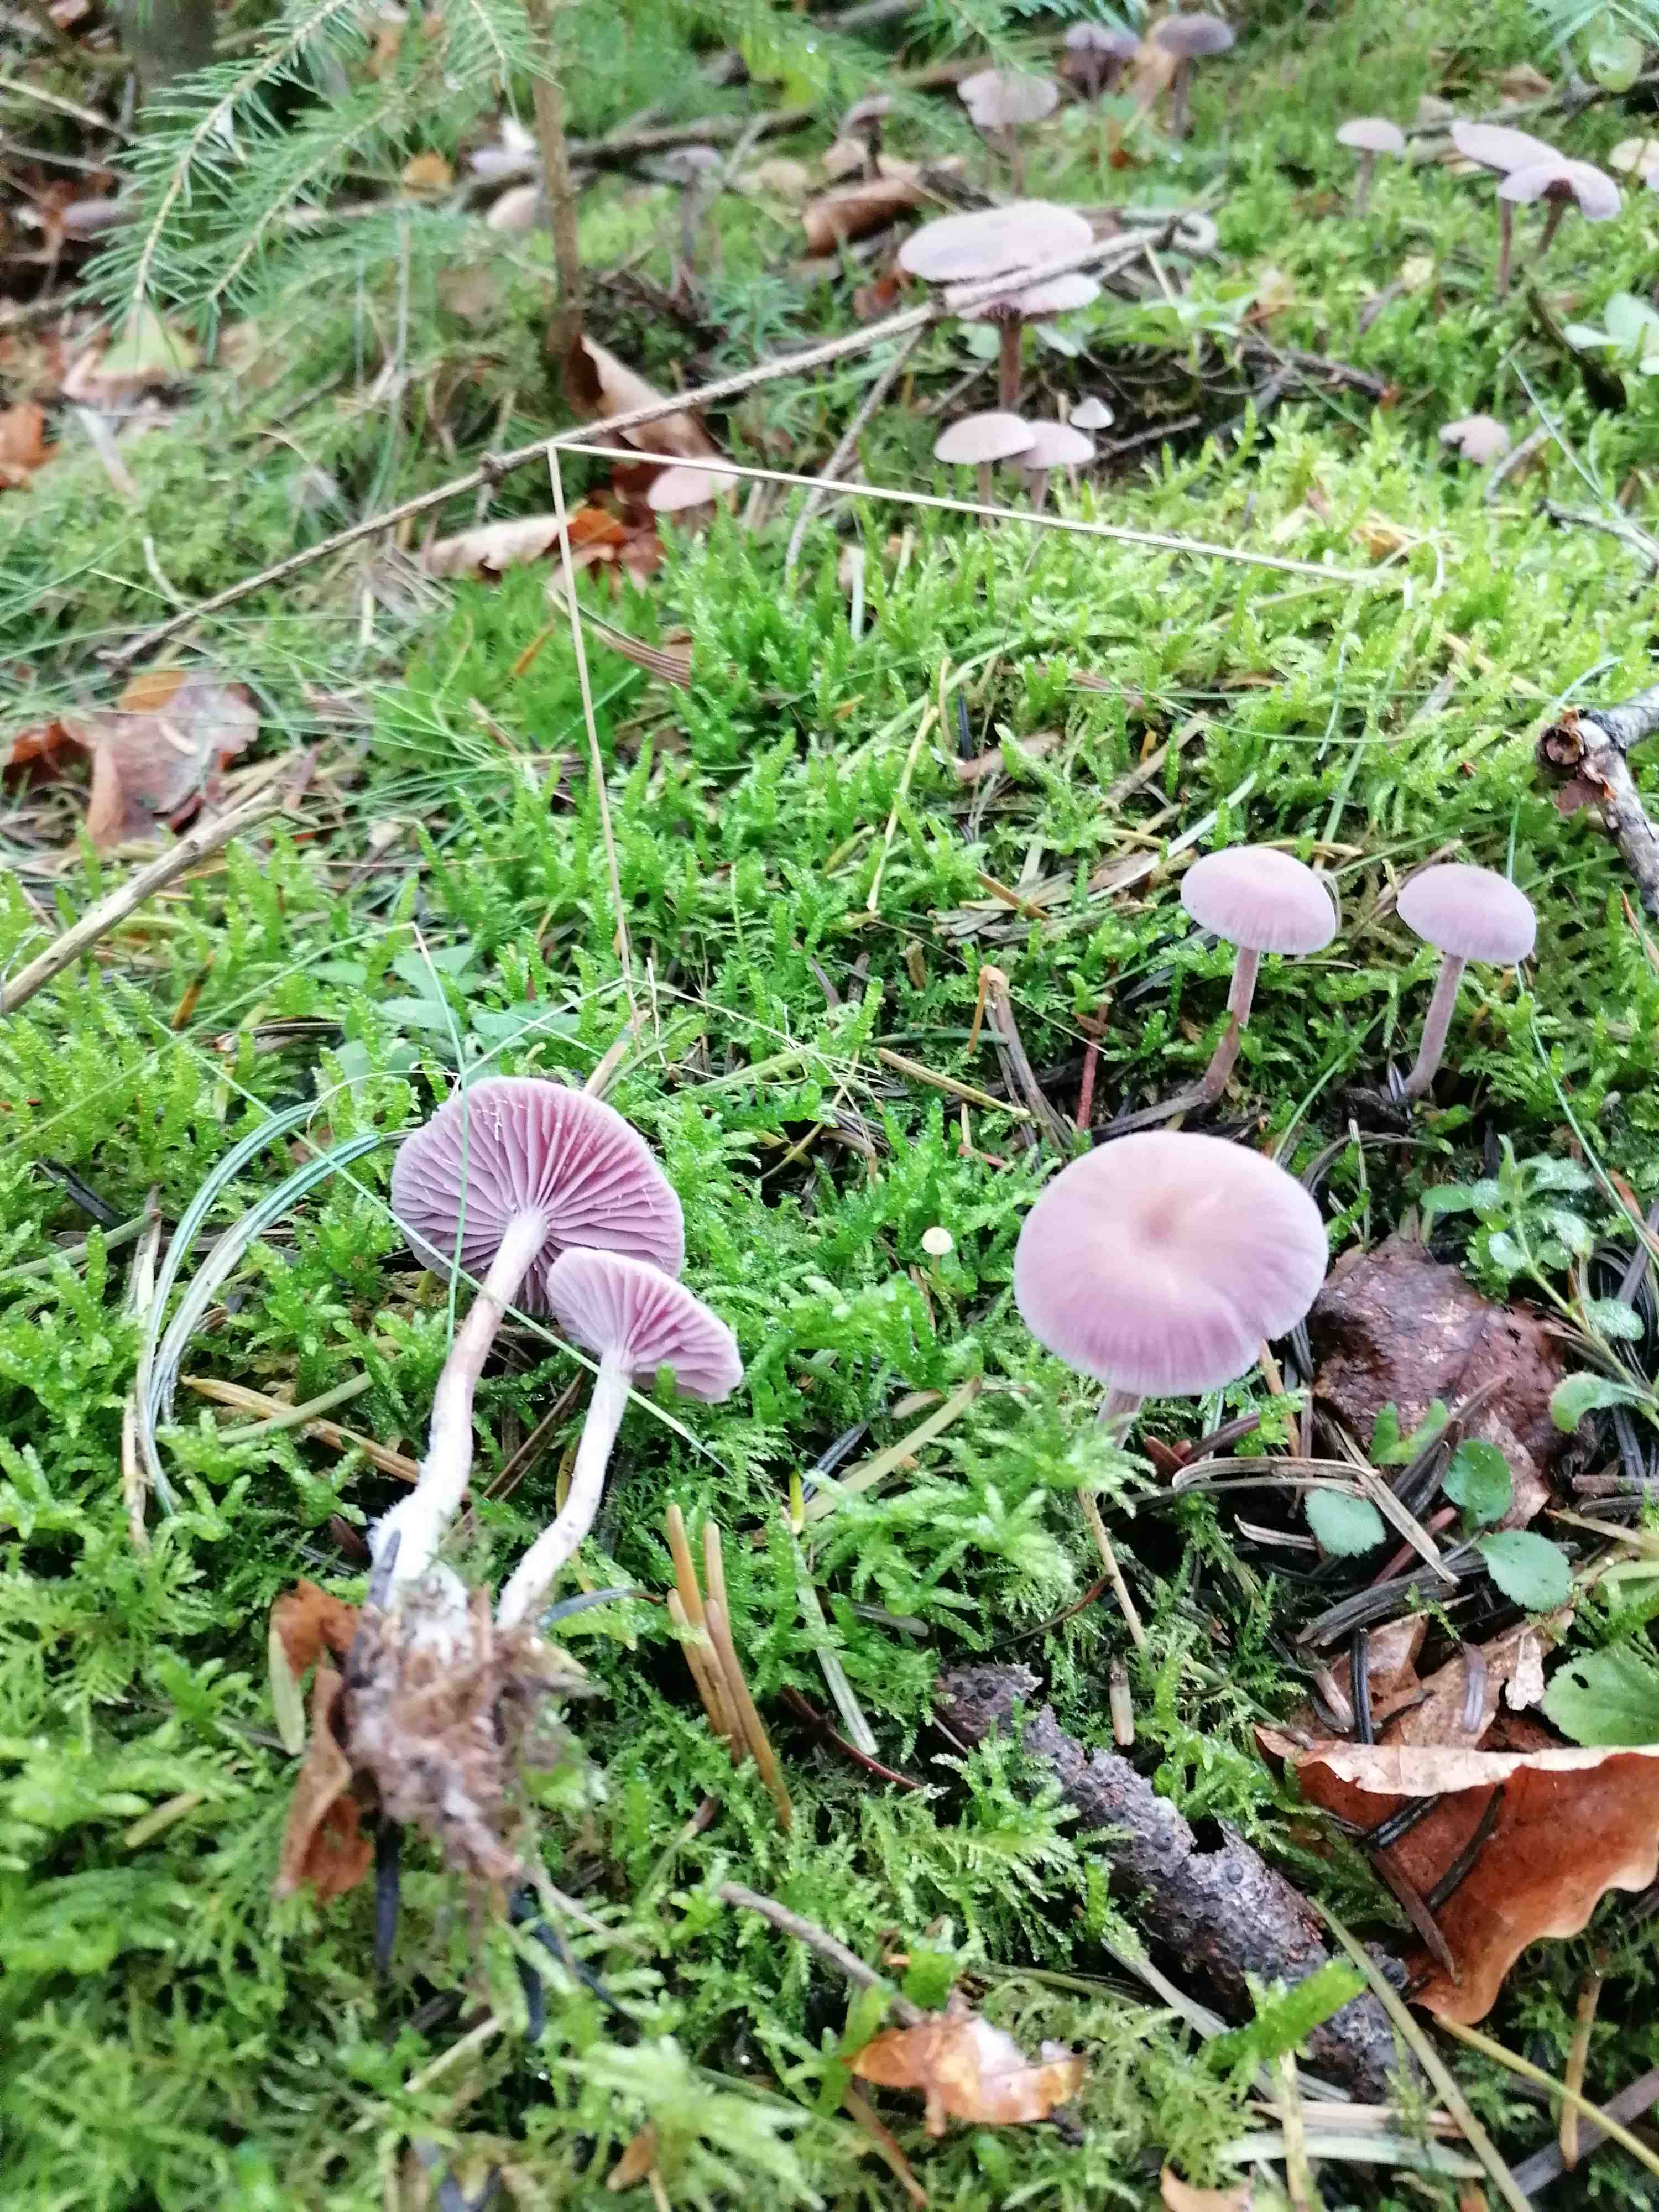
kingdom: Fungi
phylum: Basidiomycota
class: Agaricomycetes
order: Agaricales
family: Hydnangiaceae
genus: Laccaria
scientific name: Laccaria amethystina
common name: violet ametysthat
